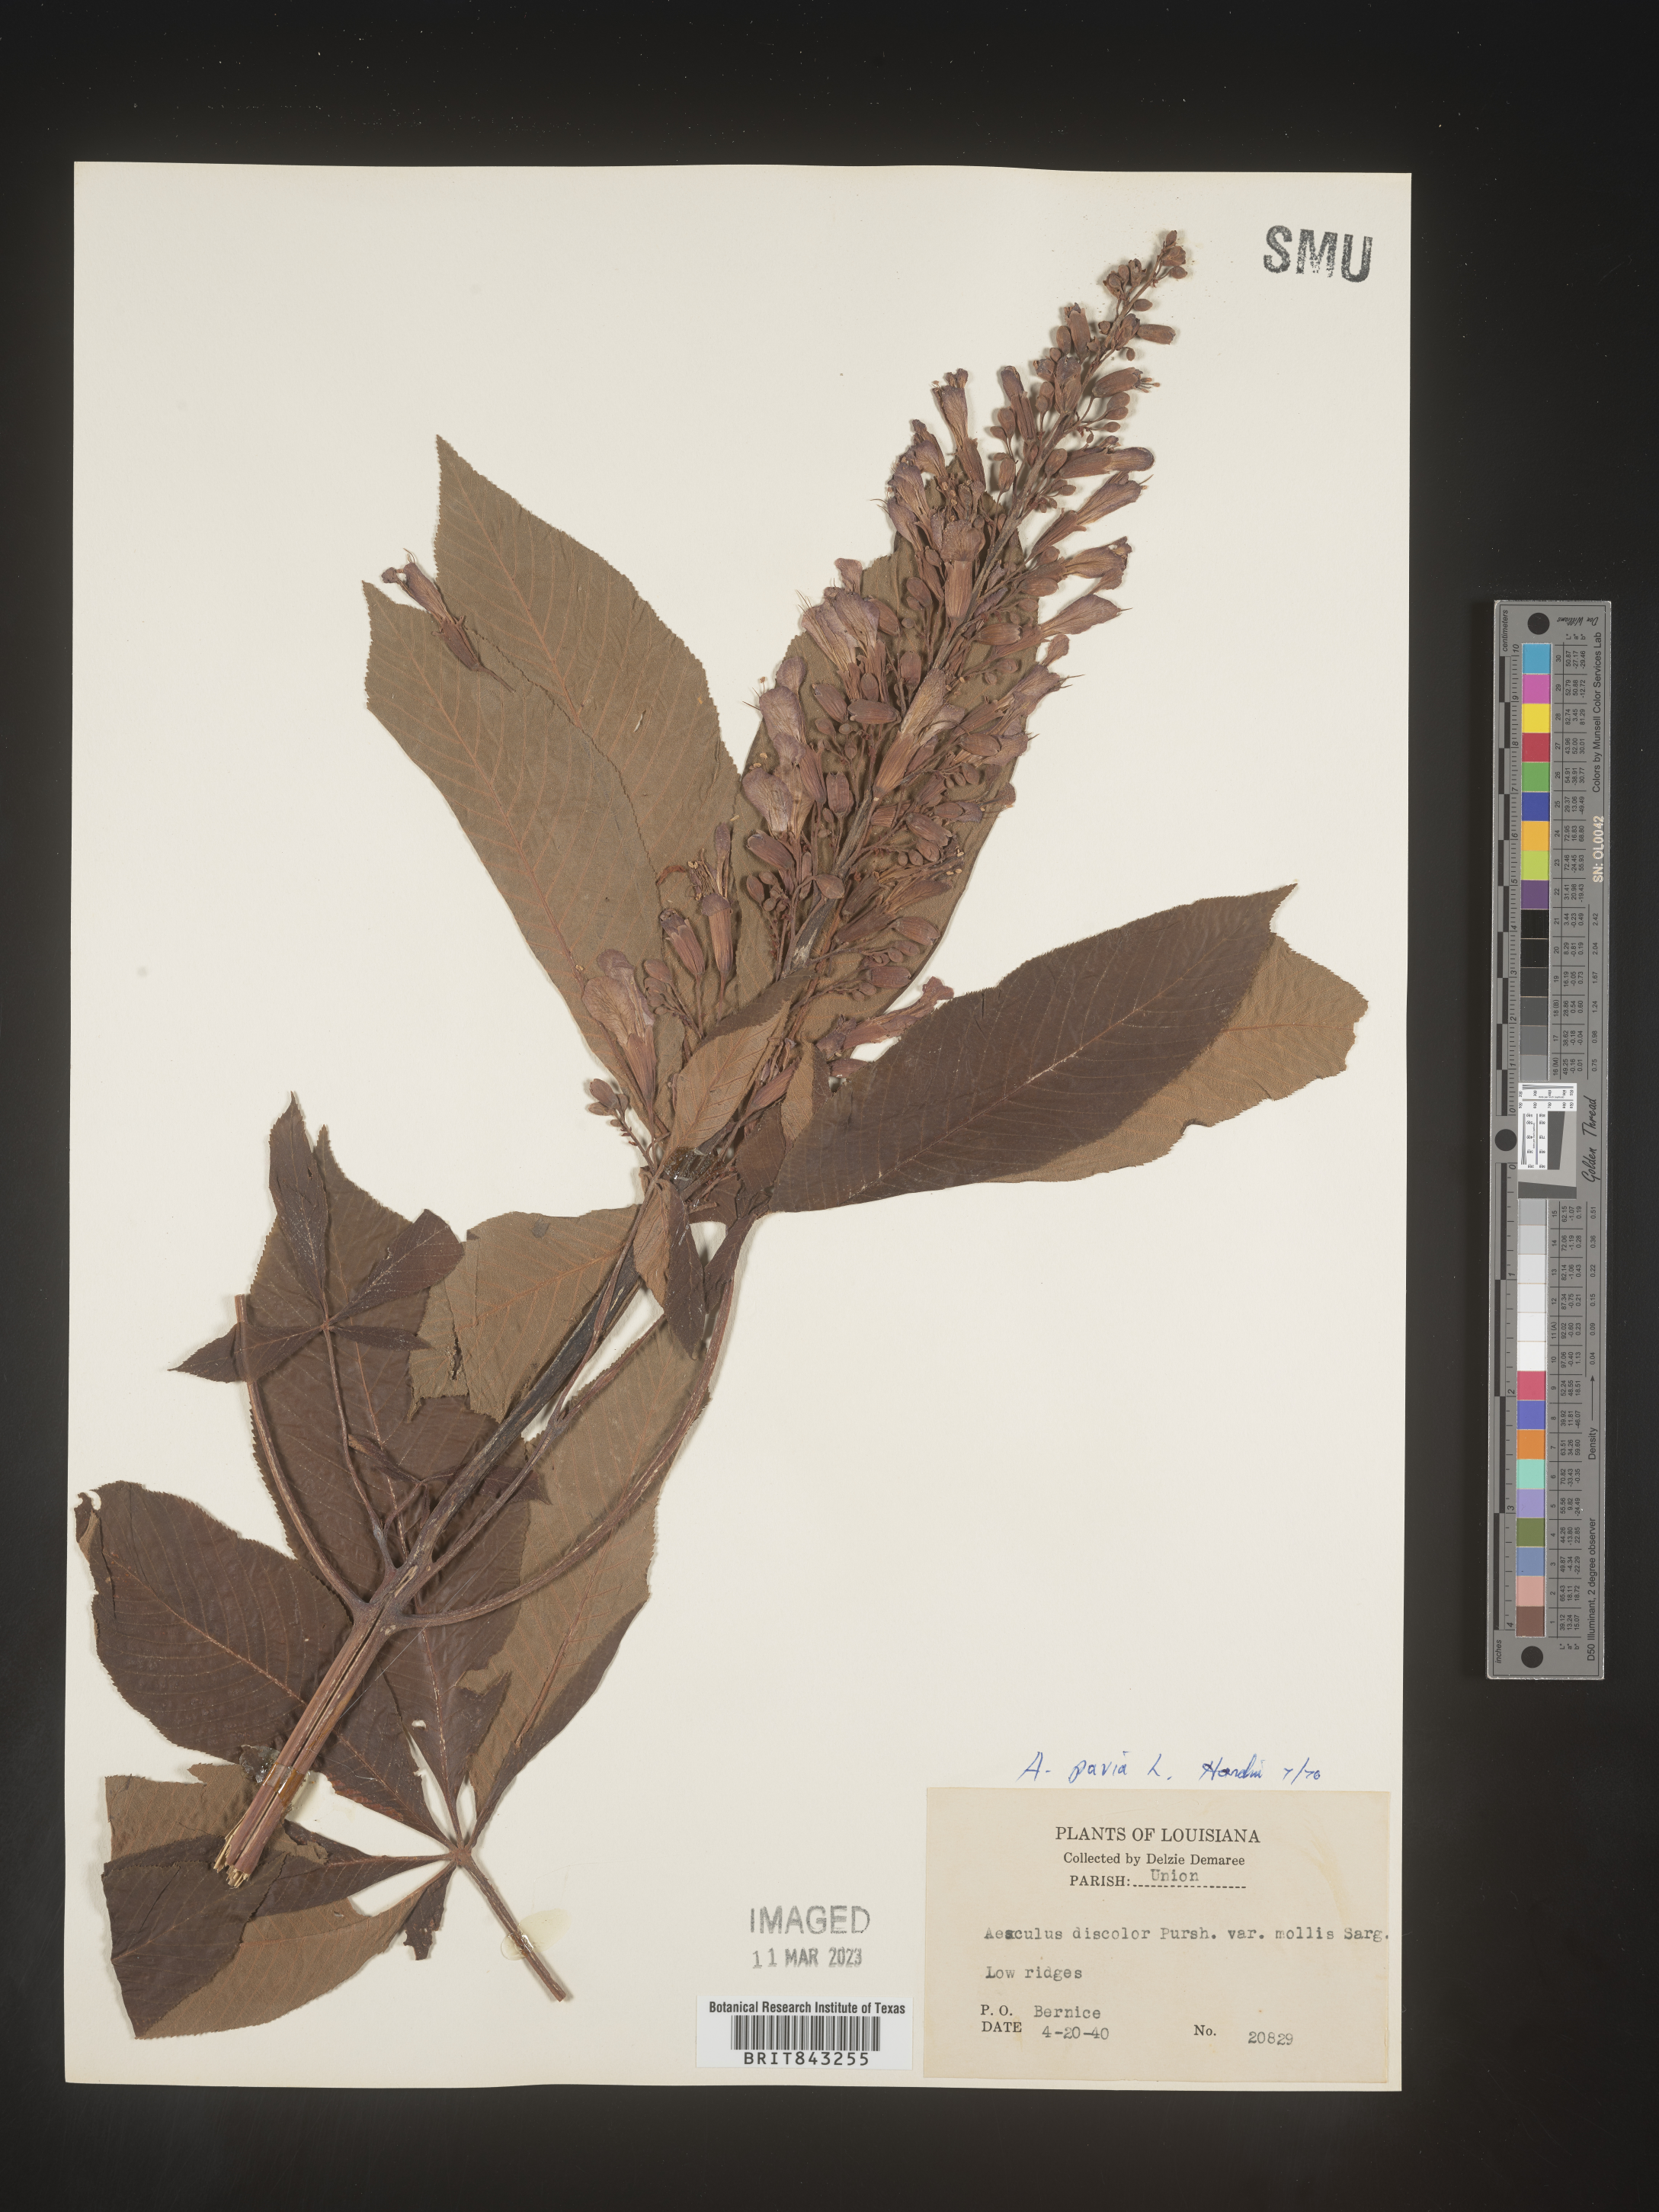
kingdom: Plantae
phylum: Tracheophyta
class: Magnoliopsida
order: Sapindales
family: Sapindaceae
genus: Aesculus
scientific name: Aesculus pavia
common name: Red buckeye
